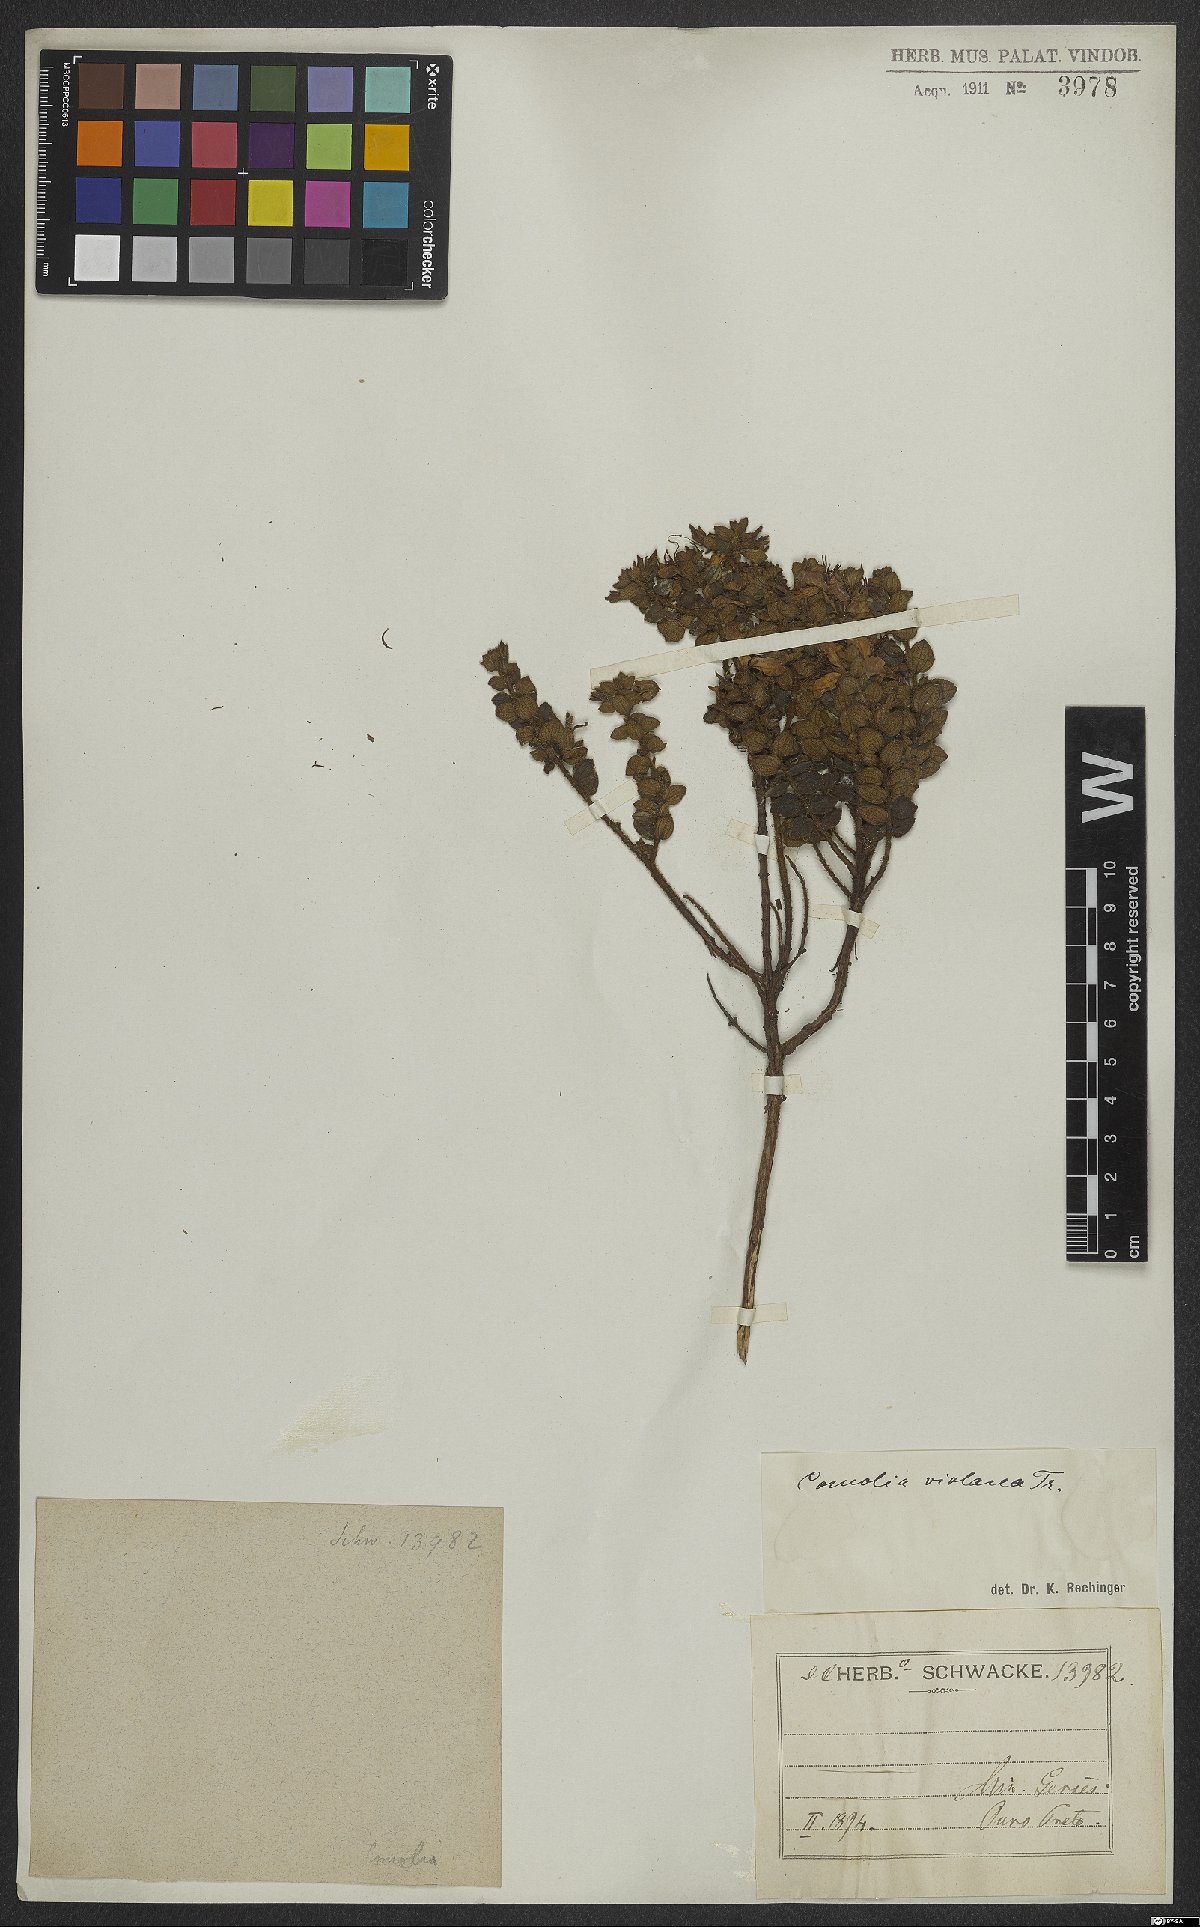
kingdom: Plantae
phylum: Tracheophyta
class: Magnoliopsida
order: Myrtales
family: Melastomataceae
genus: Fritzschia
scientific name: Fritzschia sessilis
